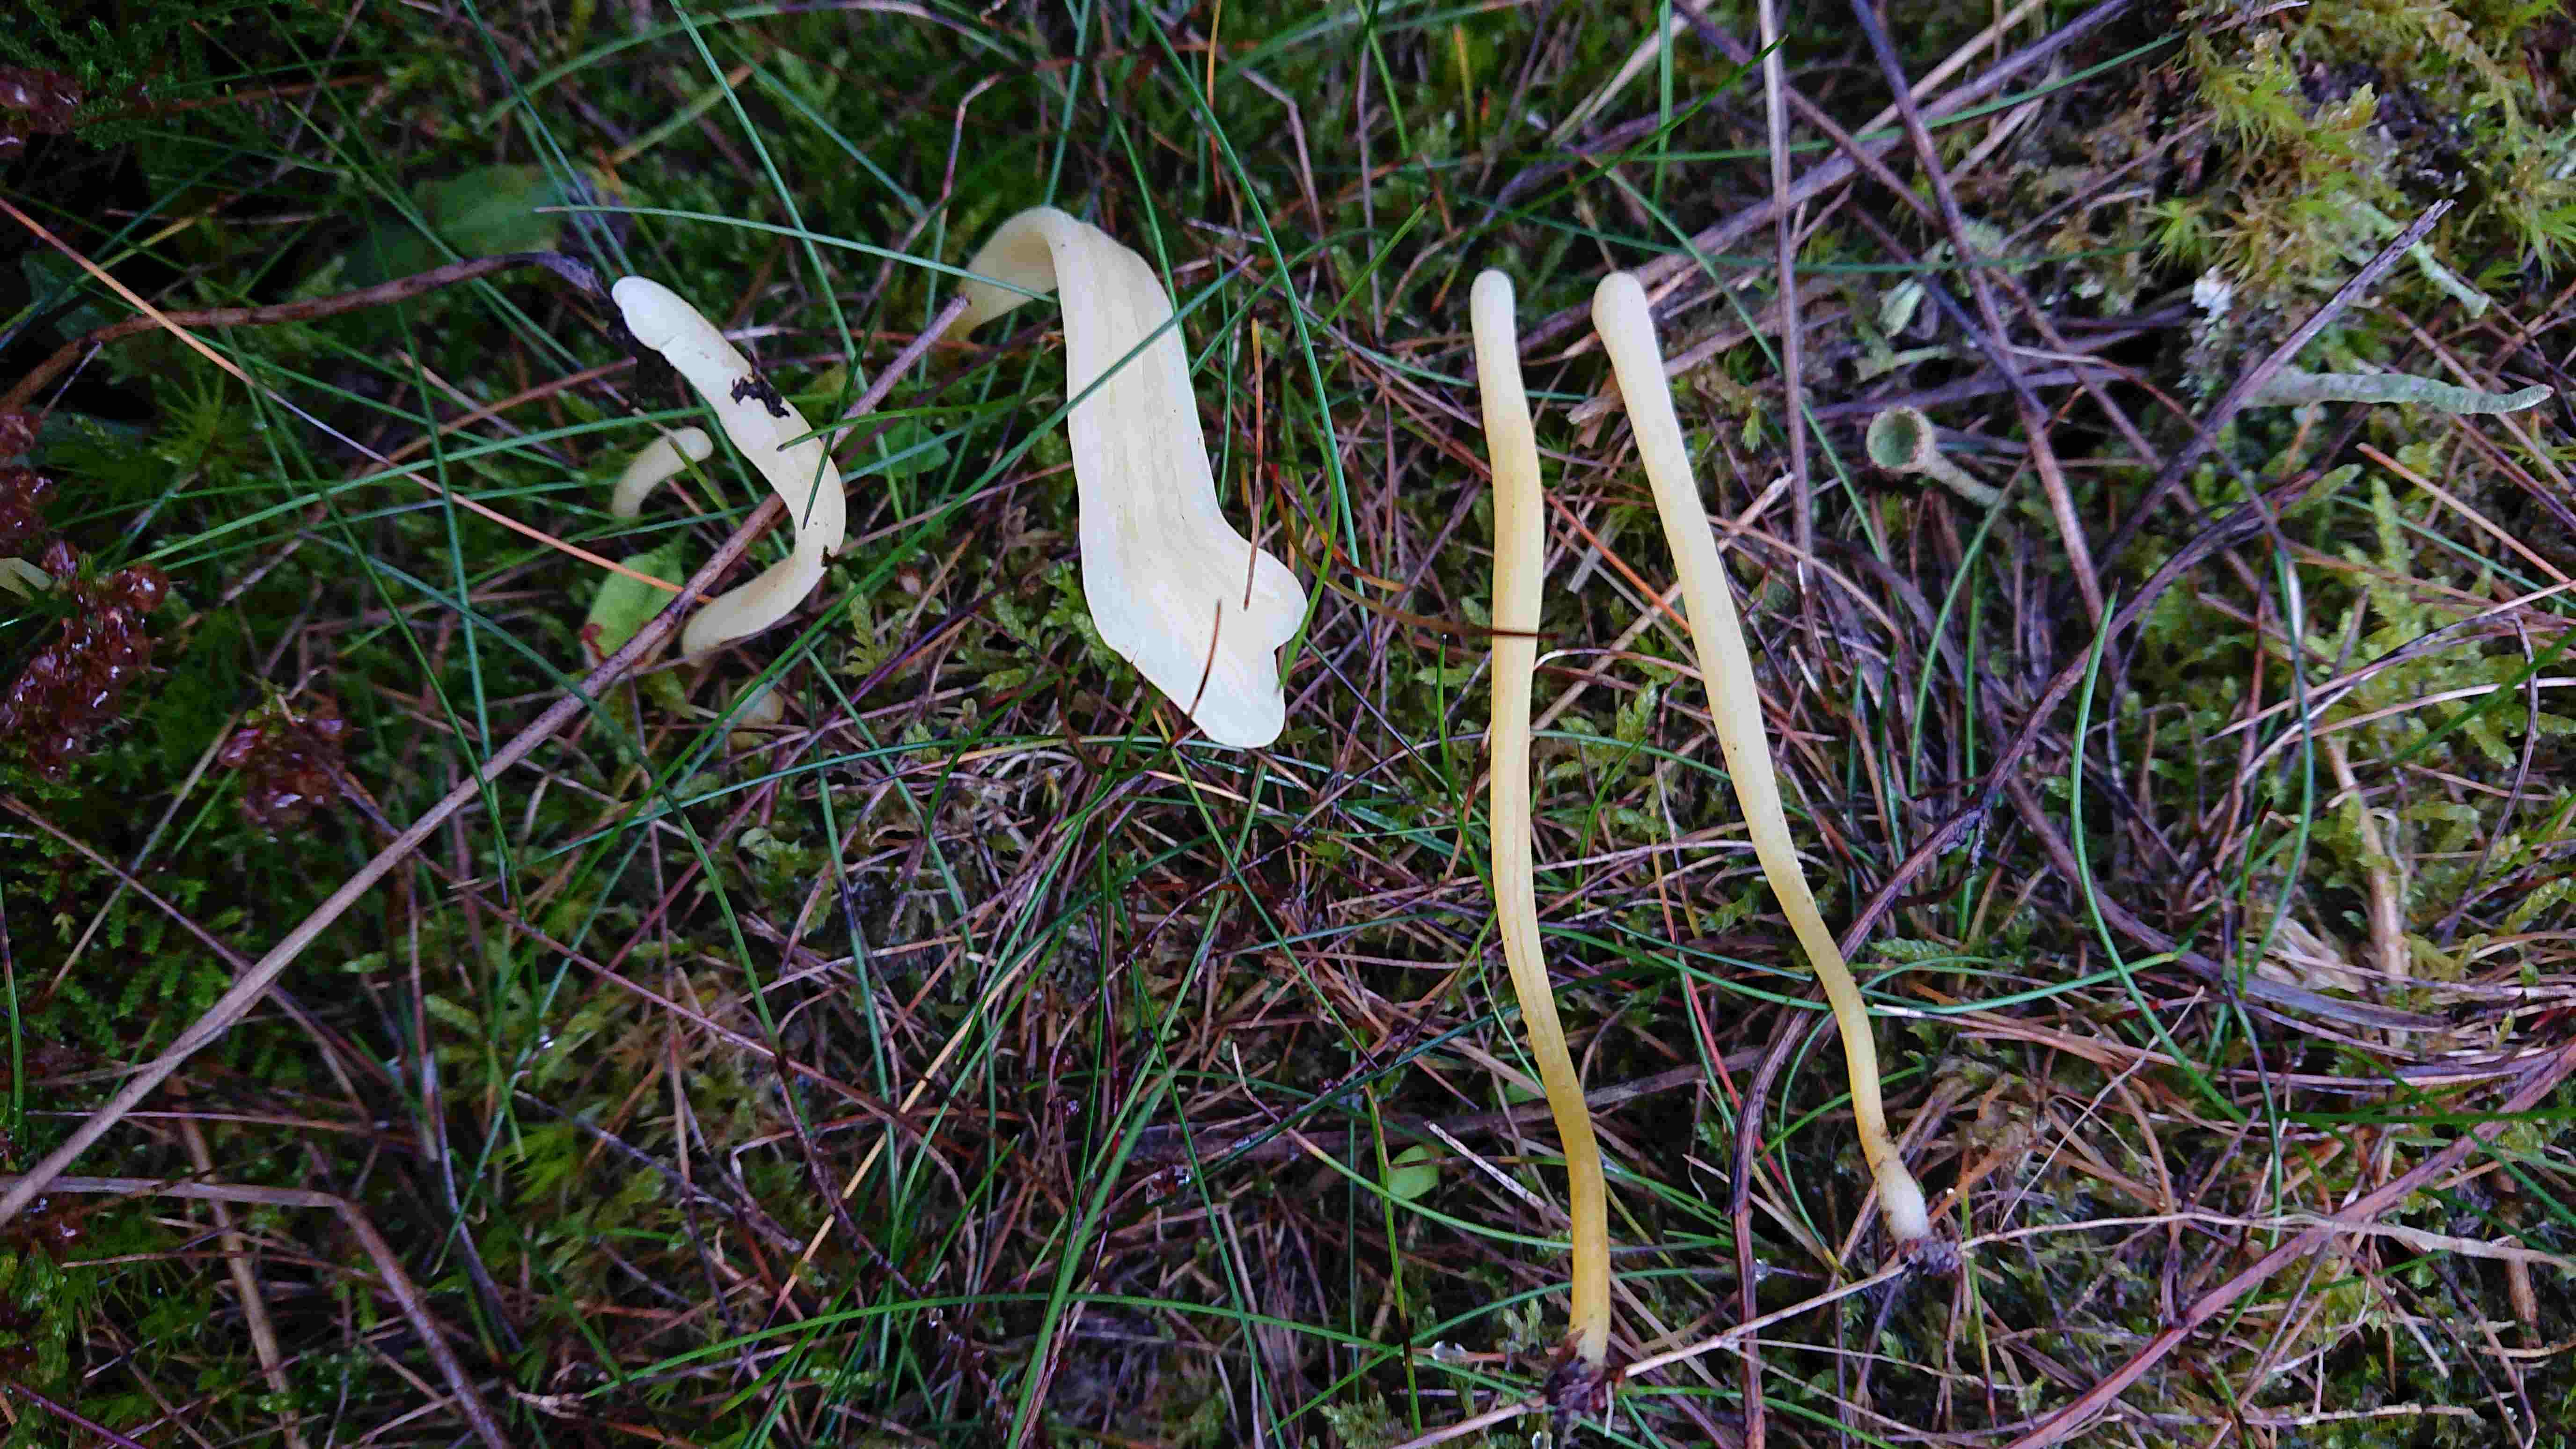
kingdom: Fungi
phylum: Basidiomycota
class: Agaricomycetes
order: Agaricales
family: Clavariaceae
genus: Clavaria
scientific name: Clavaria argillacea
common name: lerfarvet køllesvamp
